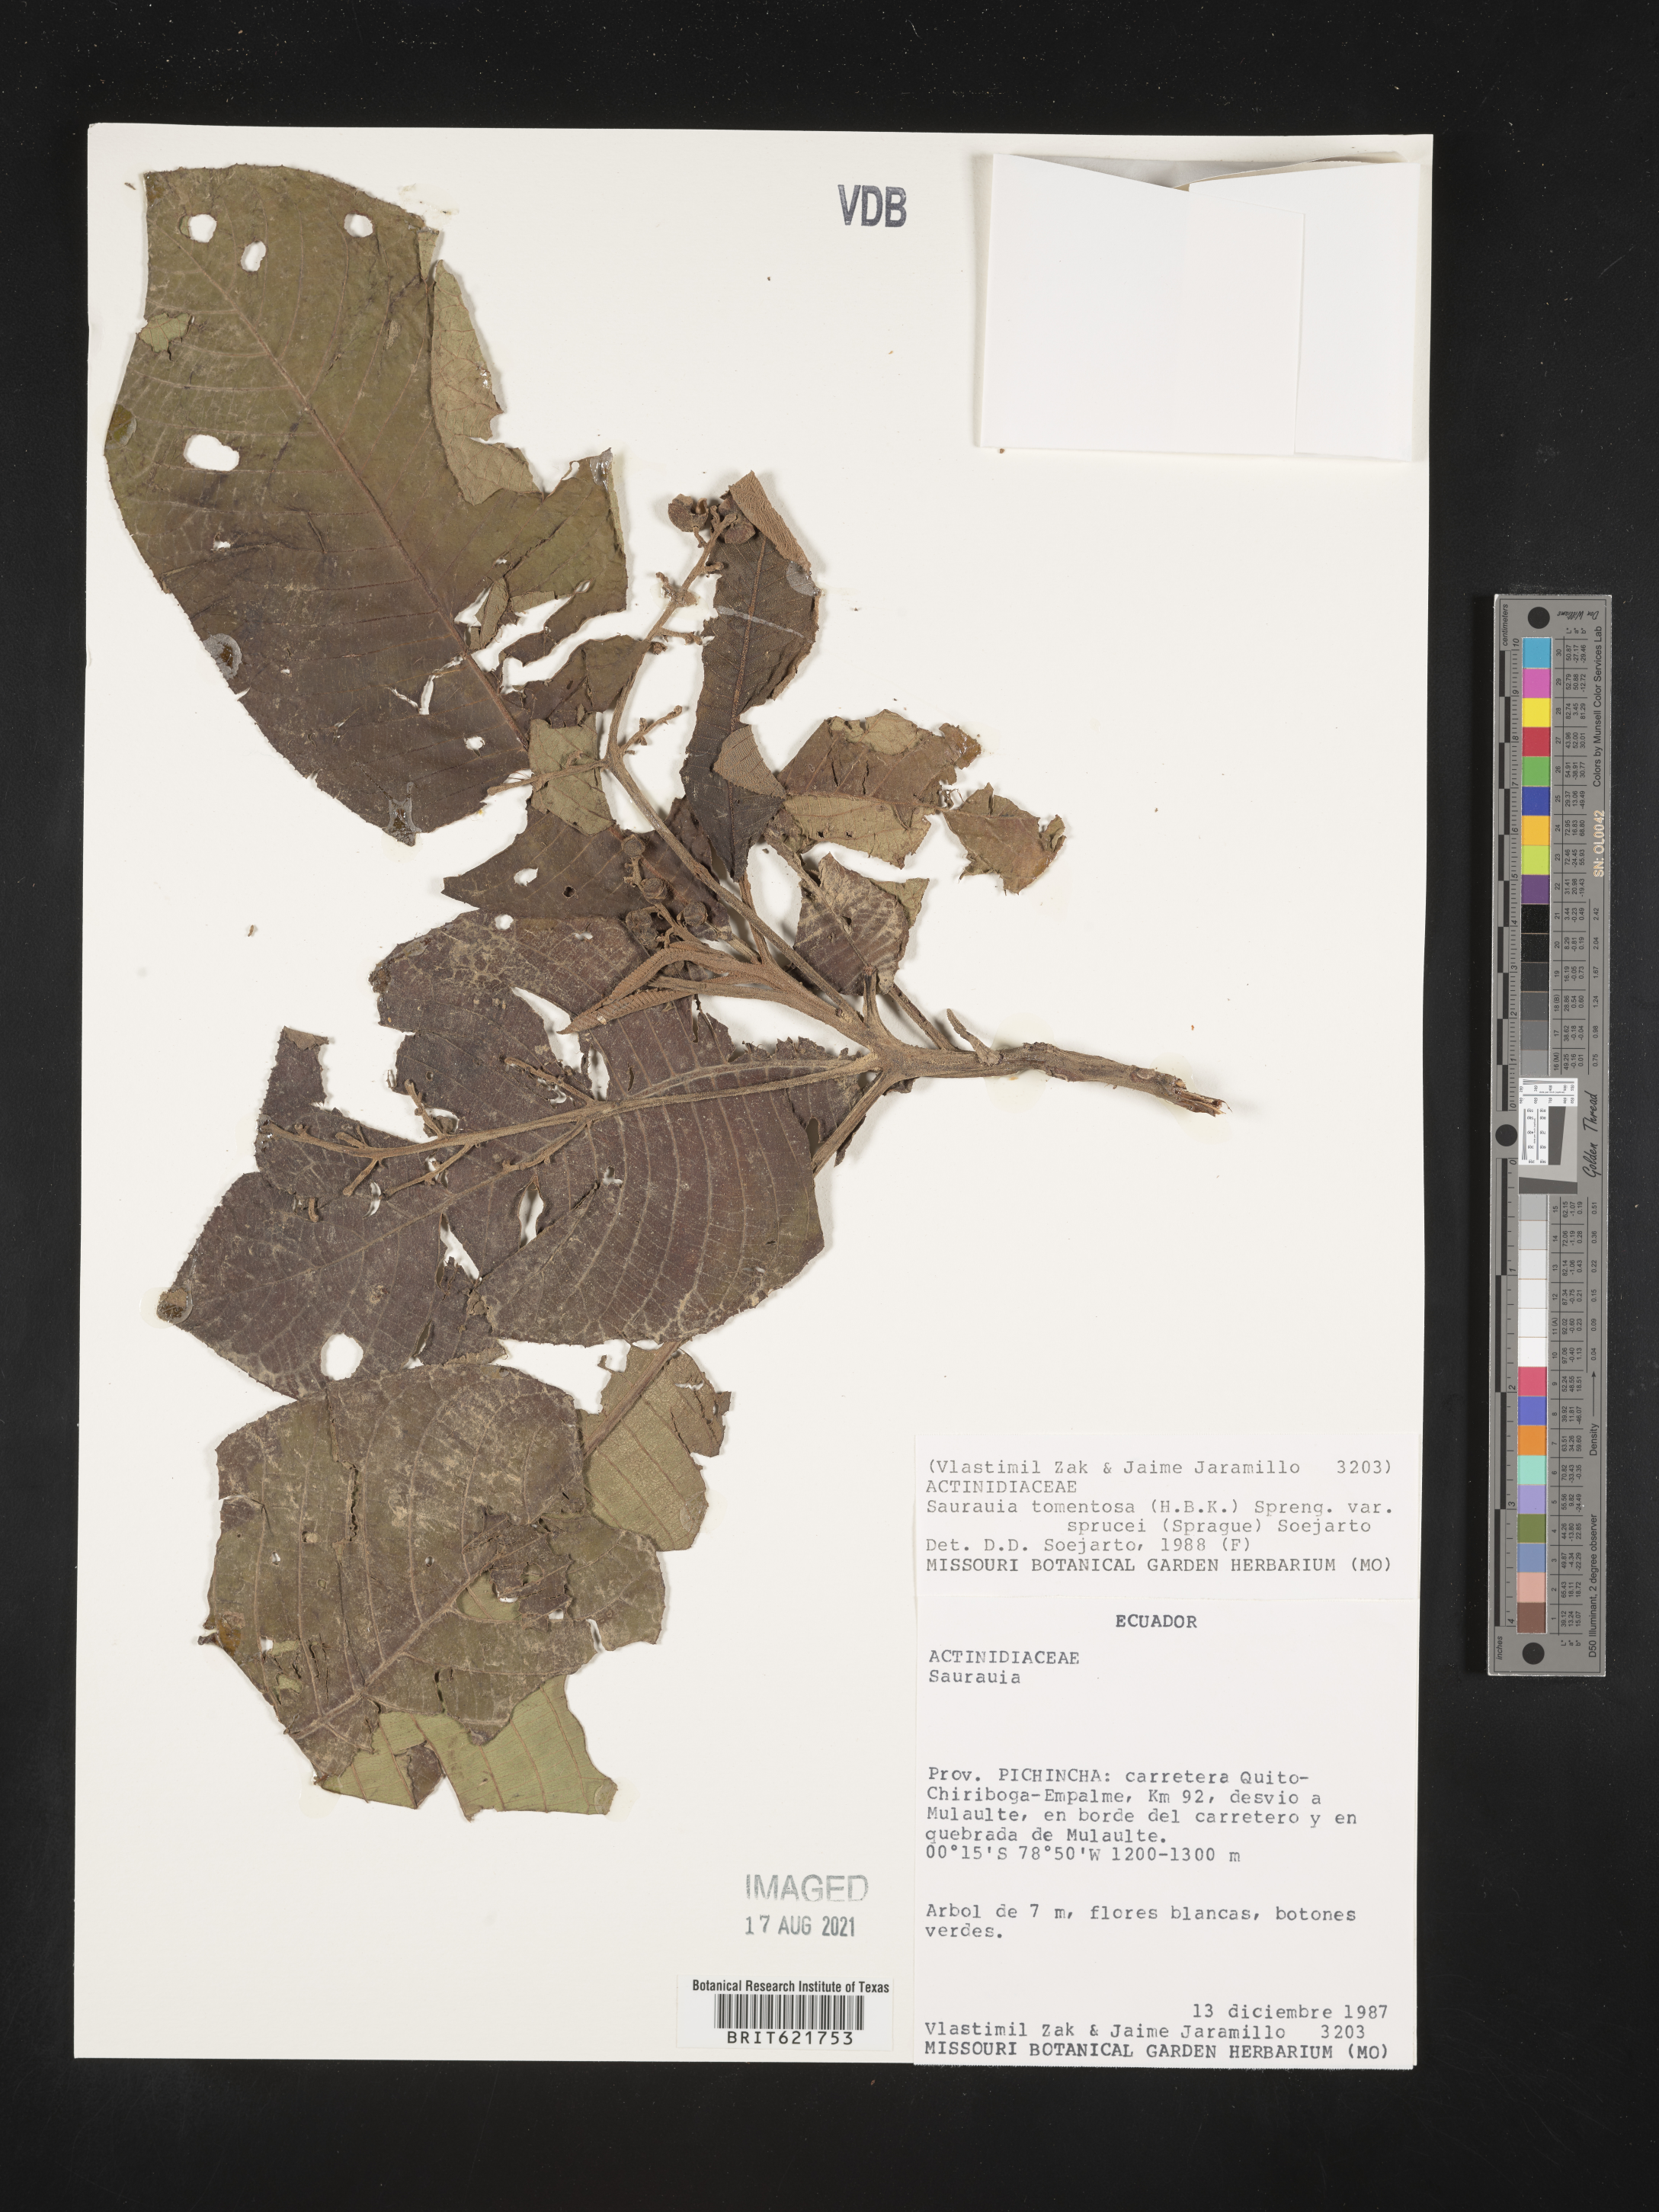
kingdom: Plantae
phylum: Tracheophyta
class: Magnoliopsida
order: Ericales
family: Actinidiaceae
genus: Saurauia
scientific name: Saurauia tomentosa
